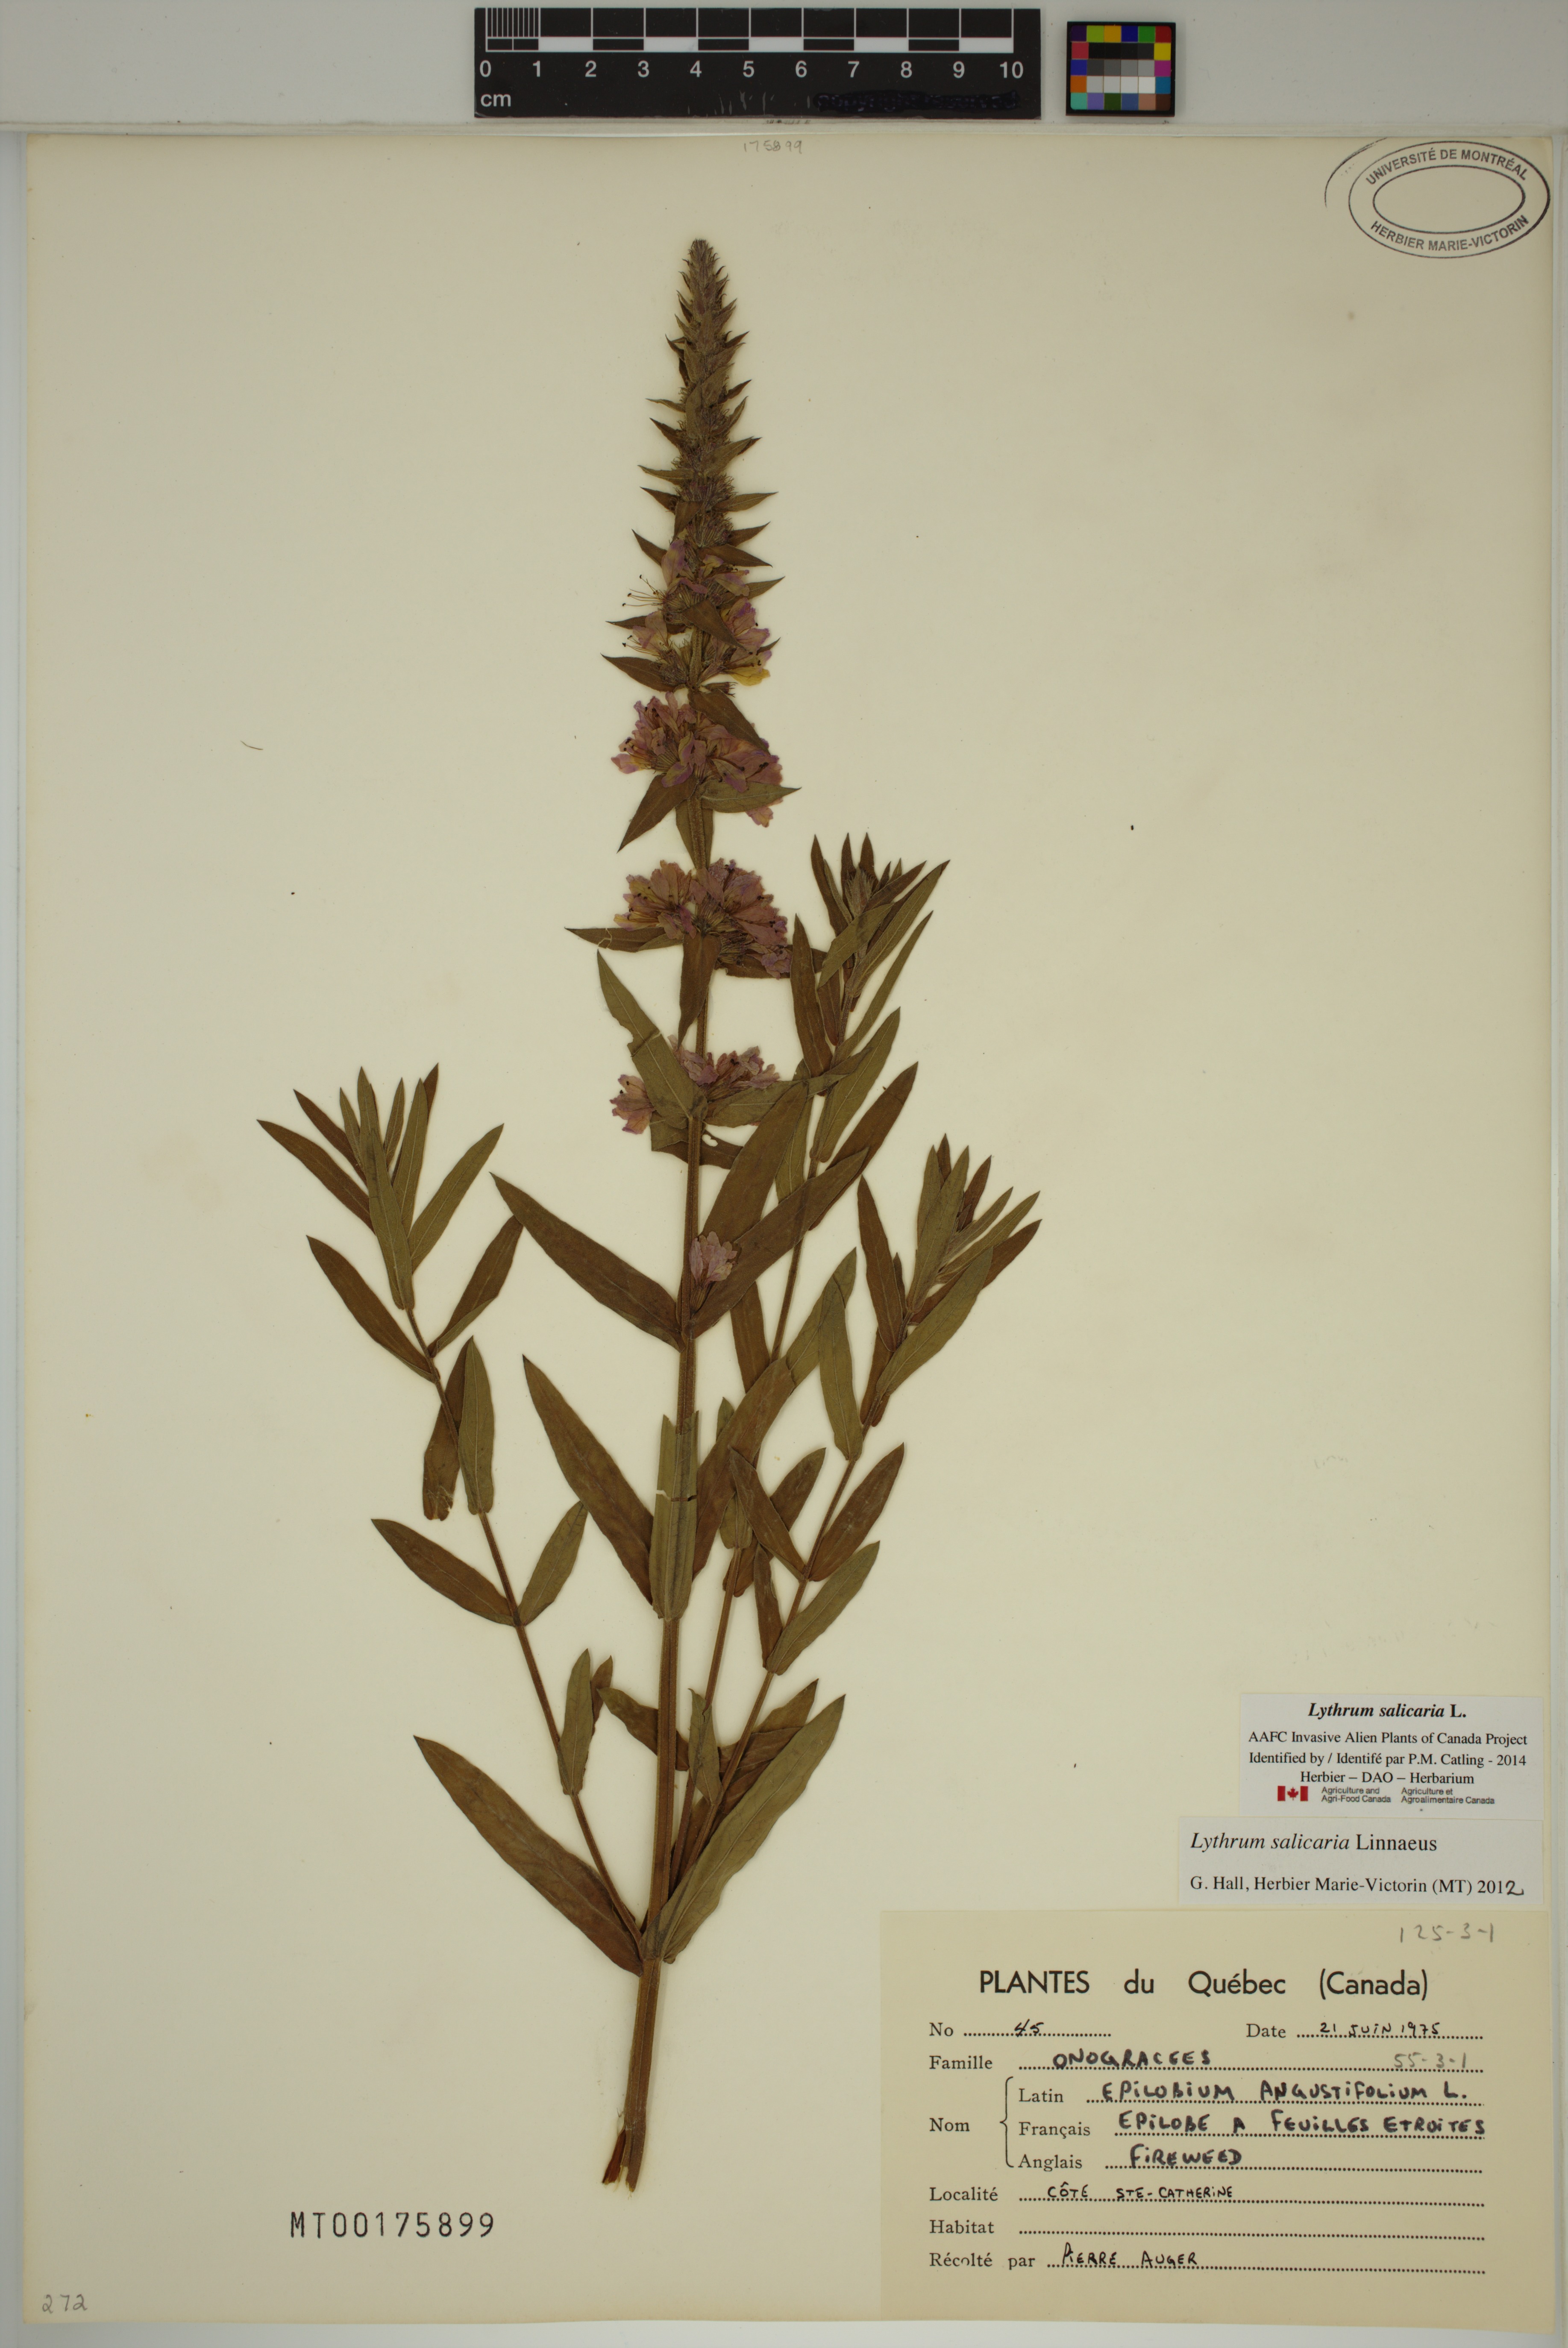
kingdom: Plantae
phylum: Tracheophyta
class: Magnoliopsida
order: Myrtales
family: Lythraceae
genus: Lythrum
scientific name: Lythrum salicaria
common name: Purple loosestrife
